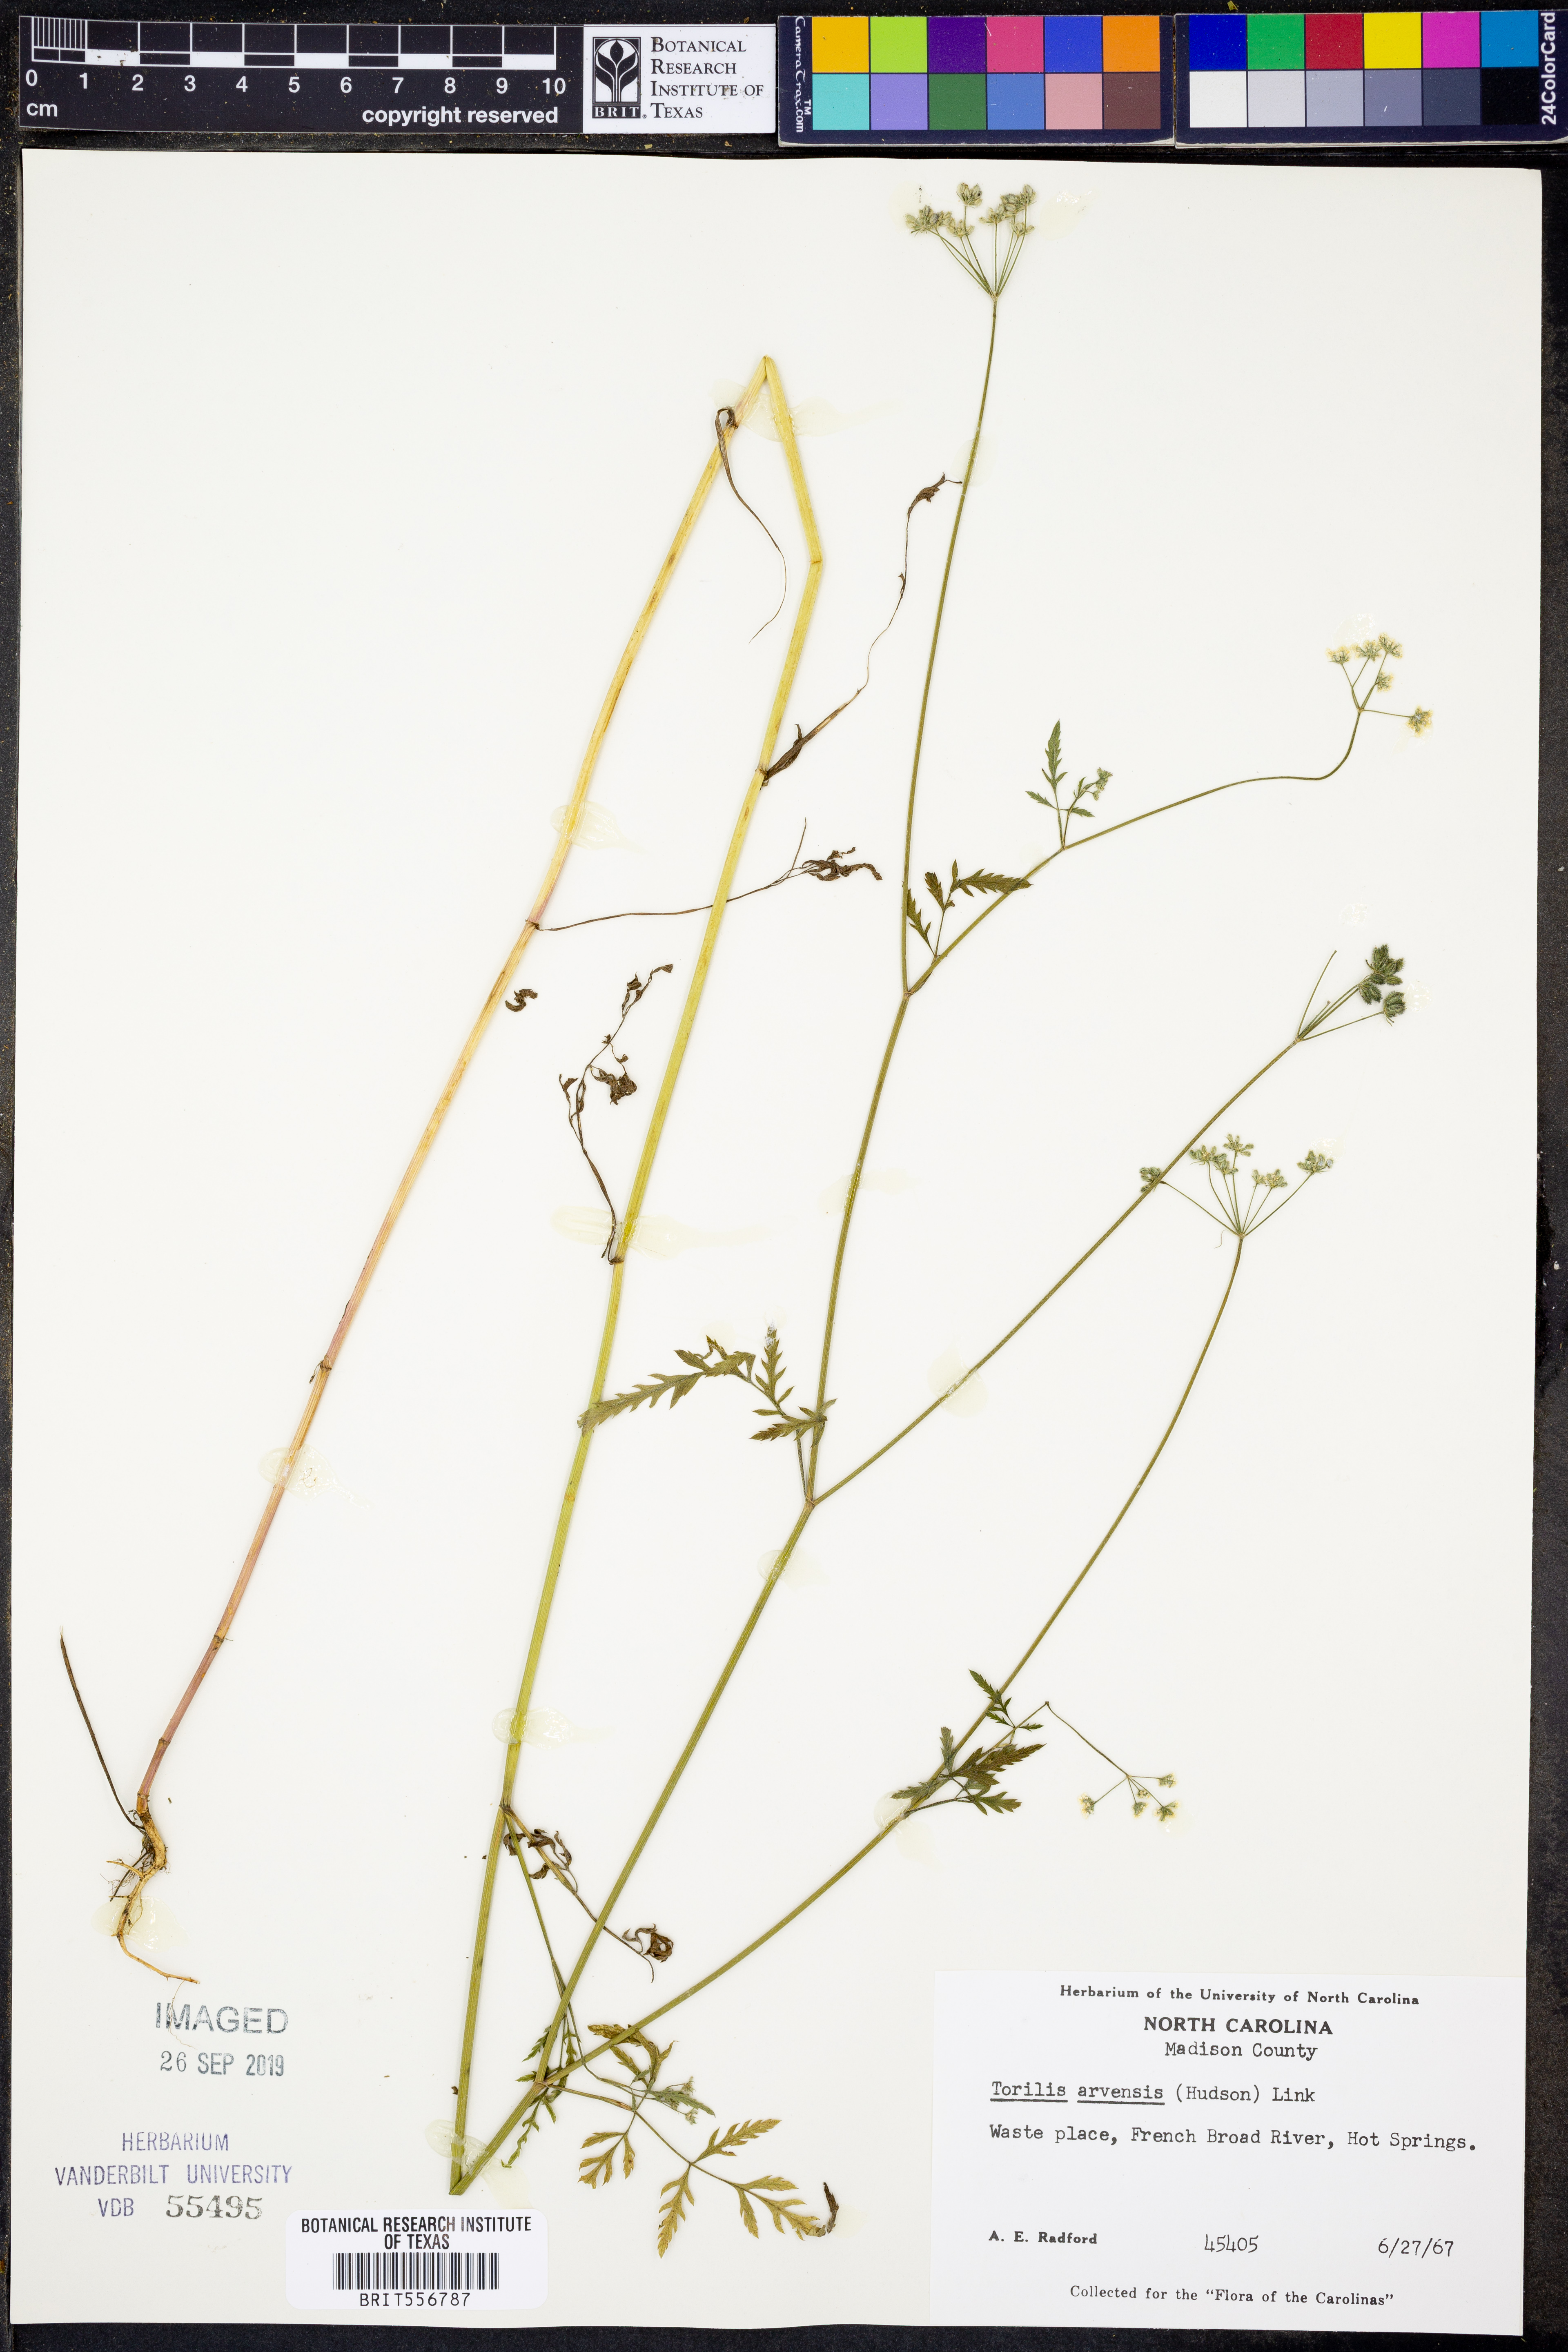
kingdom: Plantae
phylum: Tracheophyta
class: Magnoliopsida
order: Apiales
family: Apiaceae
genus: Torilis
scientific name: Torilis arvensis
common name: Spreading hedge-parsley
